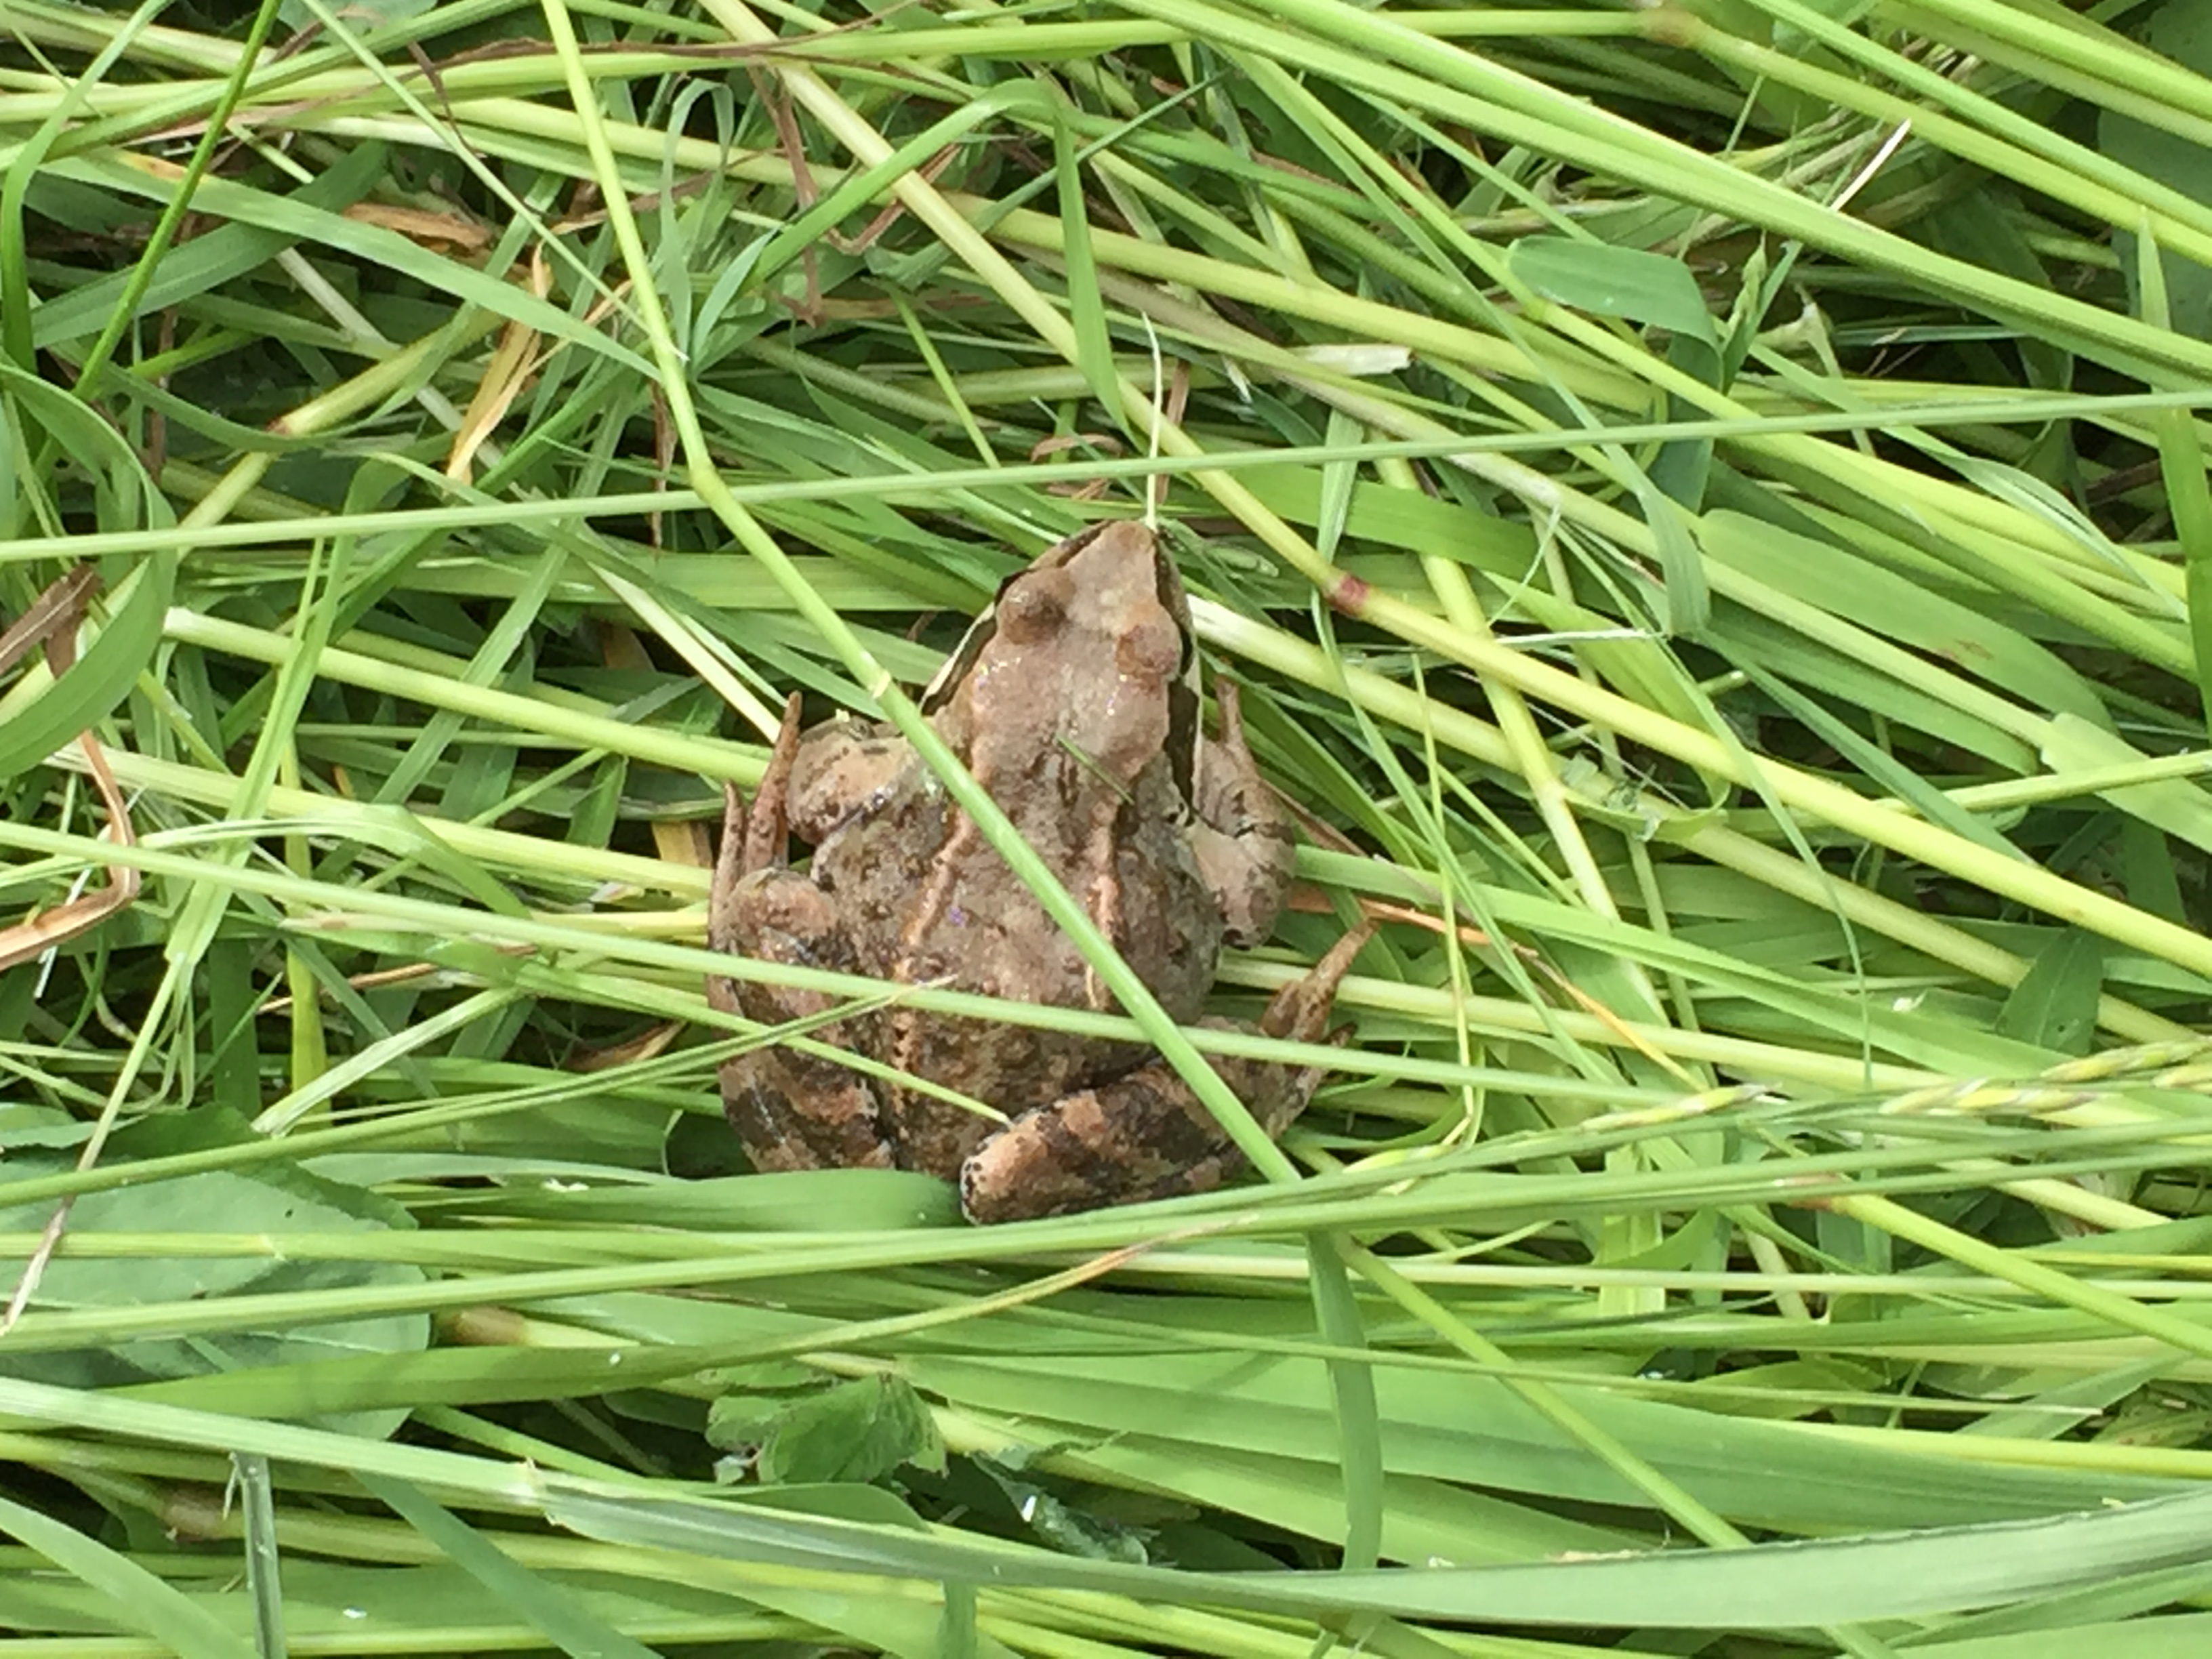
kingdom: Animalia
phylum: Chordata
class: Amphibia
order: Anura
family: Ranidae
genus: Rana
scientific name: Rana arvalis
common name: Moor frog
